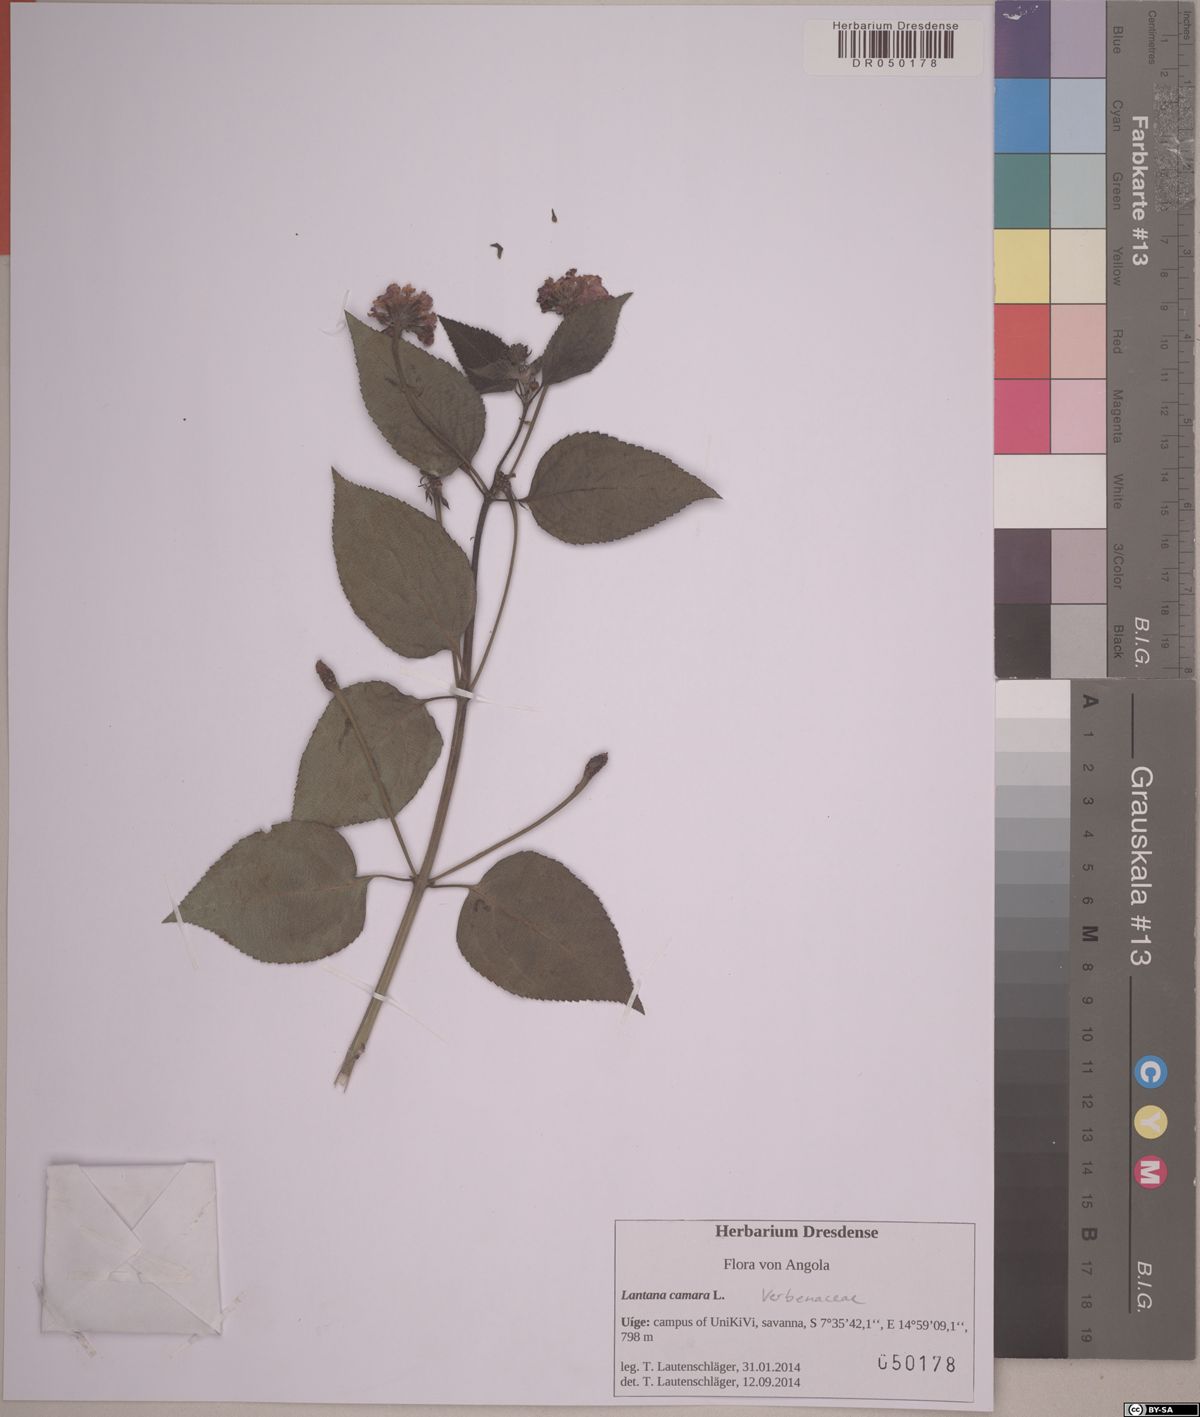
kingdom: Plantae
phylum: Tracheophyta
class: Magnoliopsida
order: Lamiales
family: Verbenaceae
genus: Lantana
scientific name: Lantana camara
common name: Lantana
